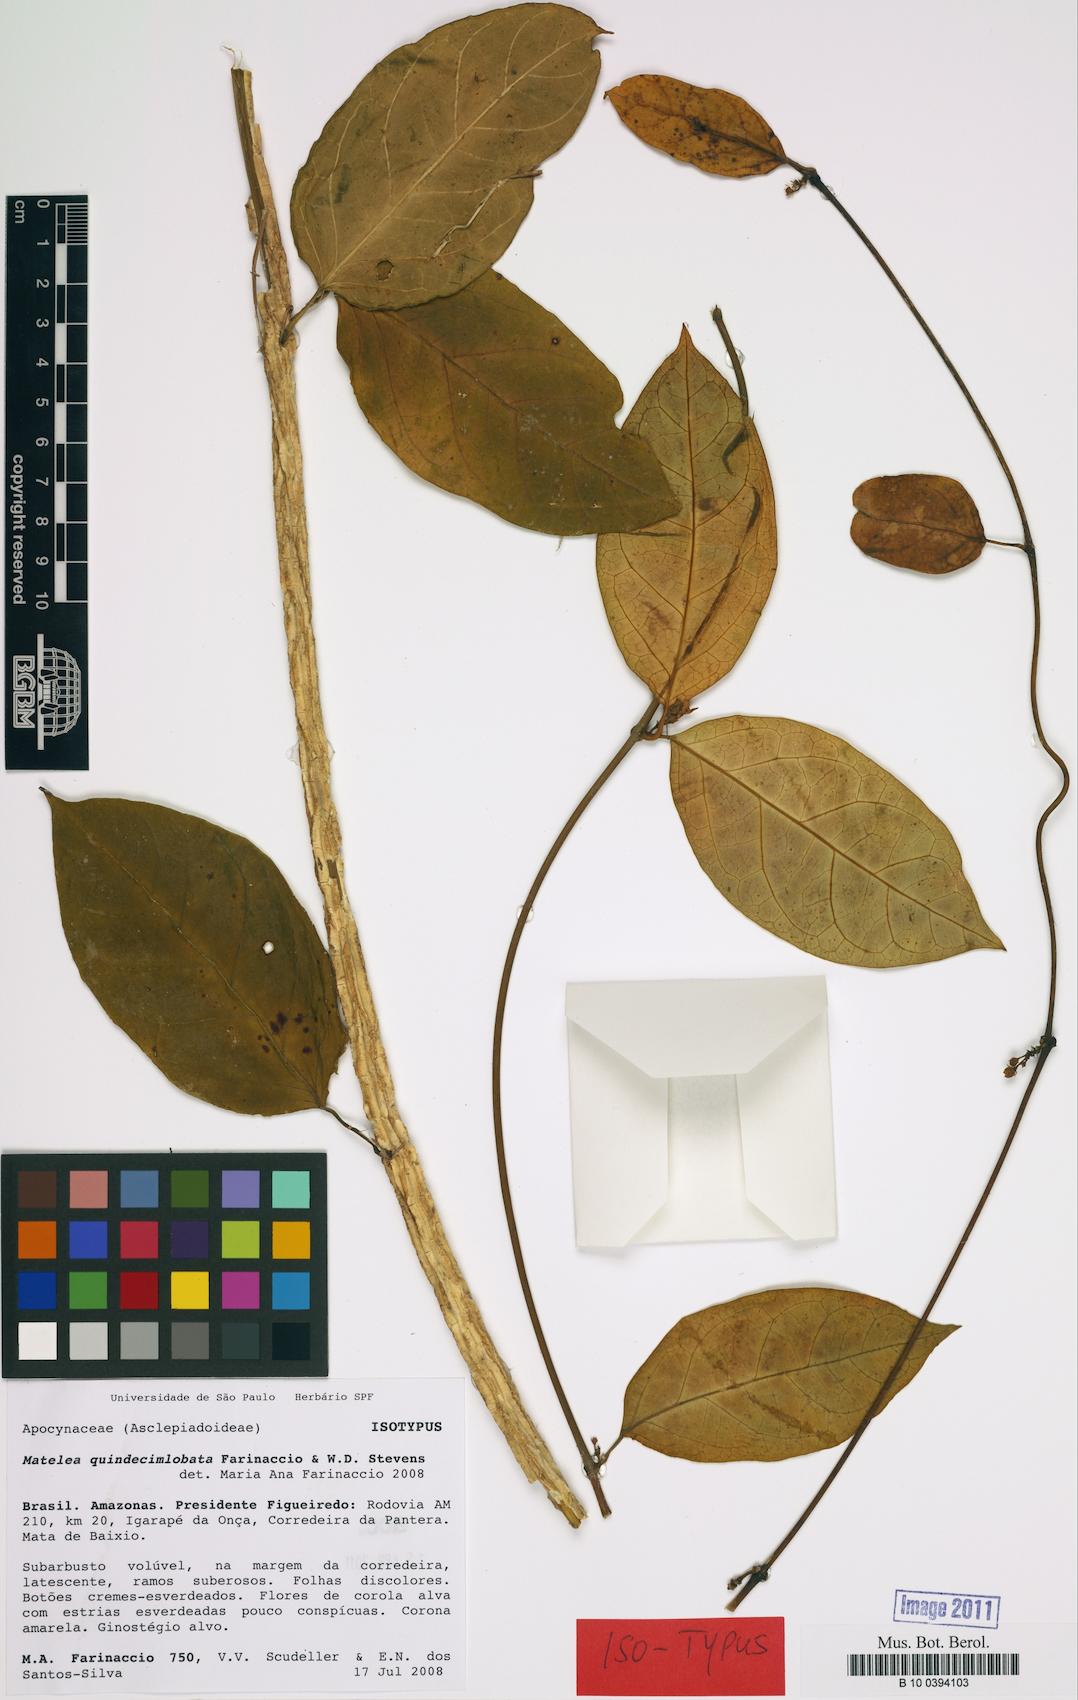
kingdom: Plantae
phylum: Tracheophyta
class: Magnoliopsida
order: Gentianales
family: Apocynaceae
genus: Matelea
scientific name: Matelea quindecimlobata
